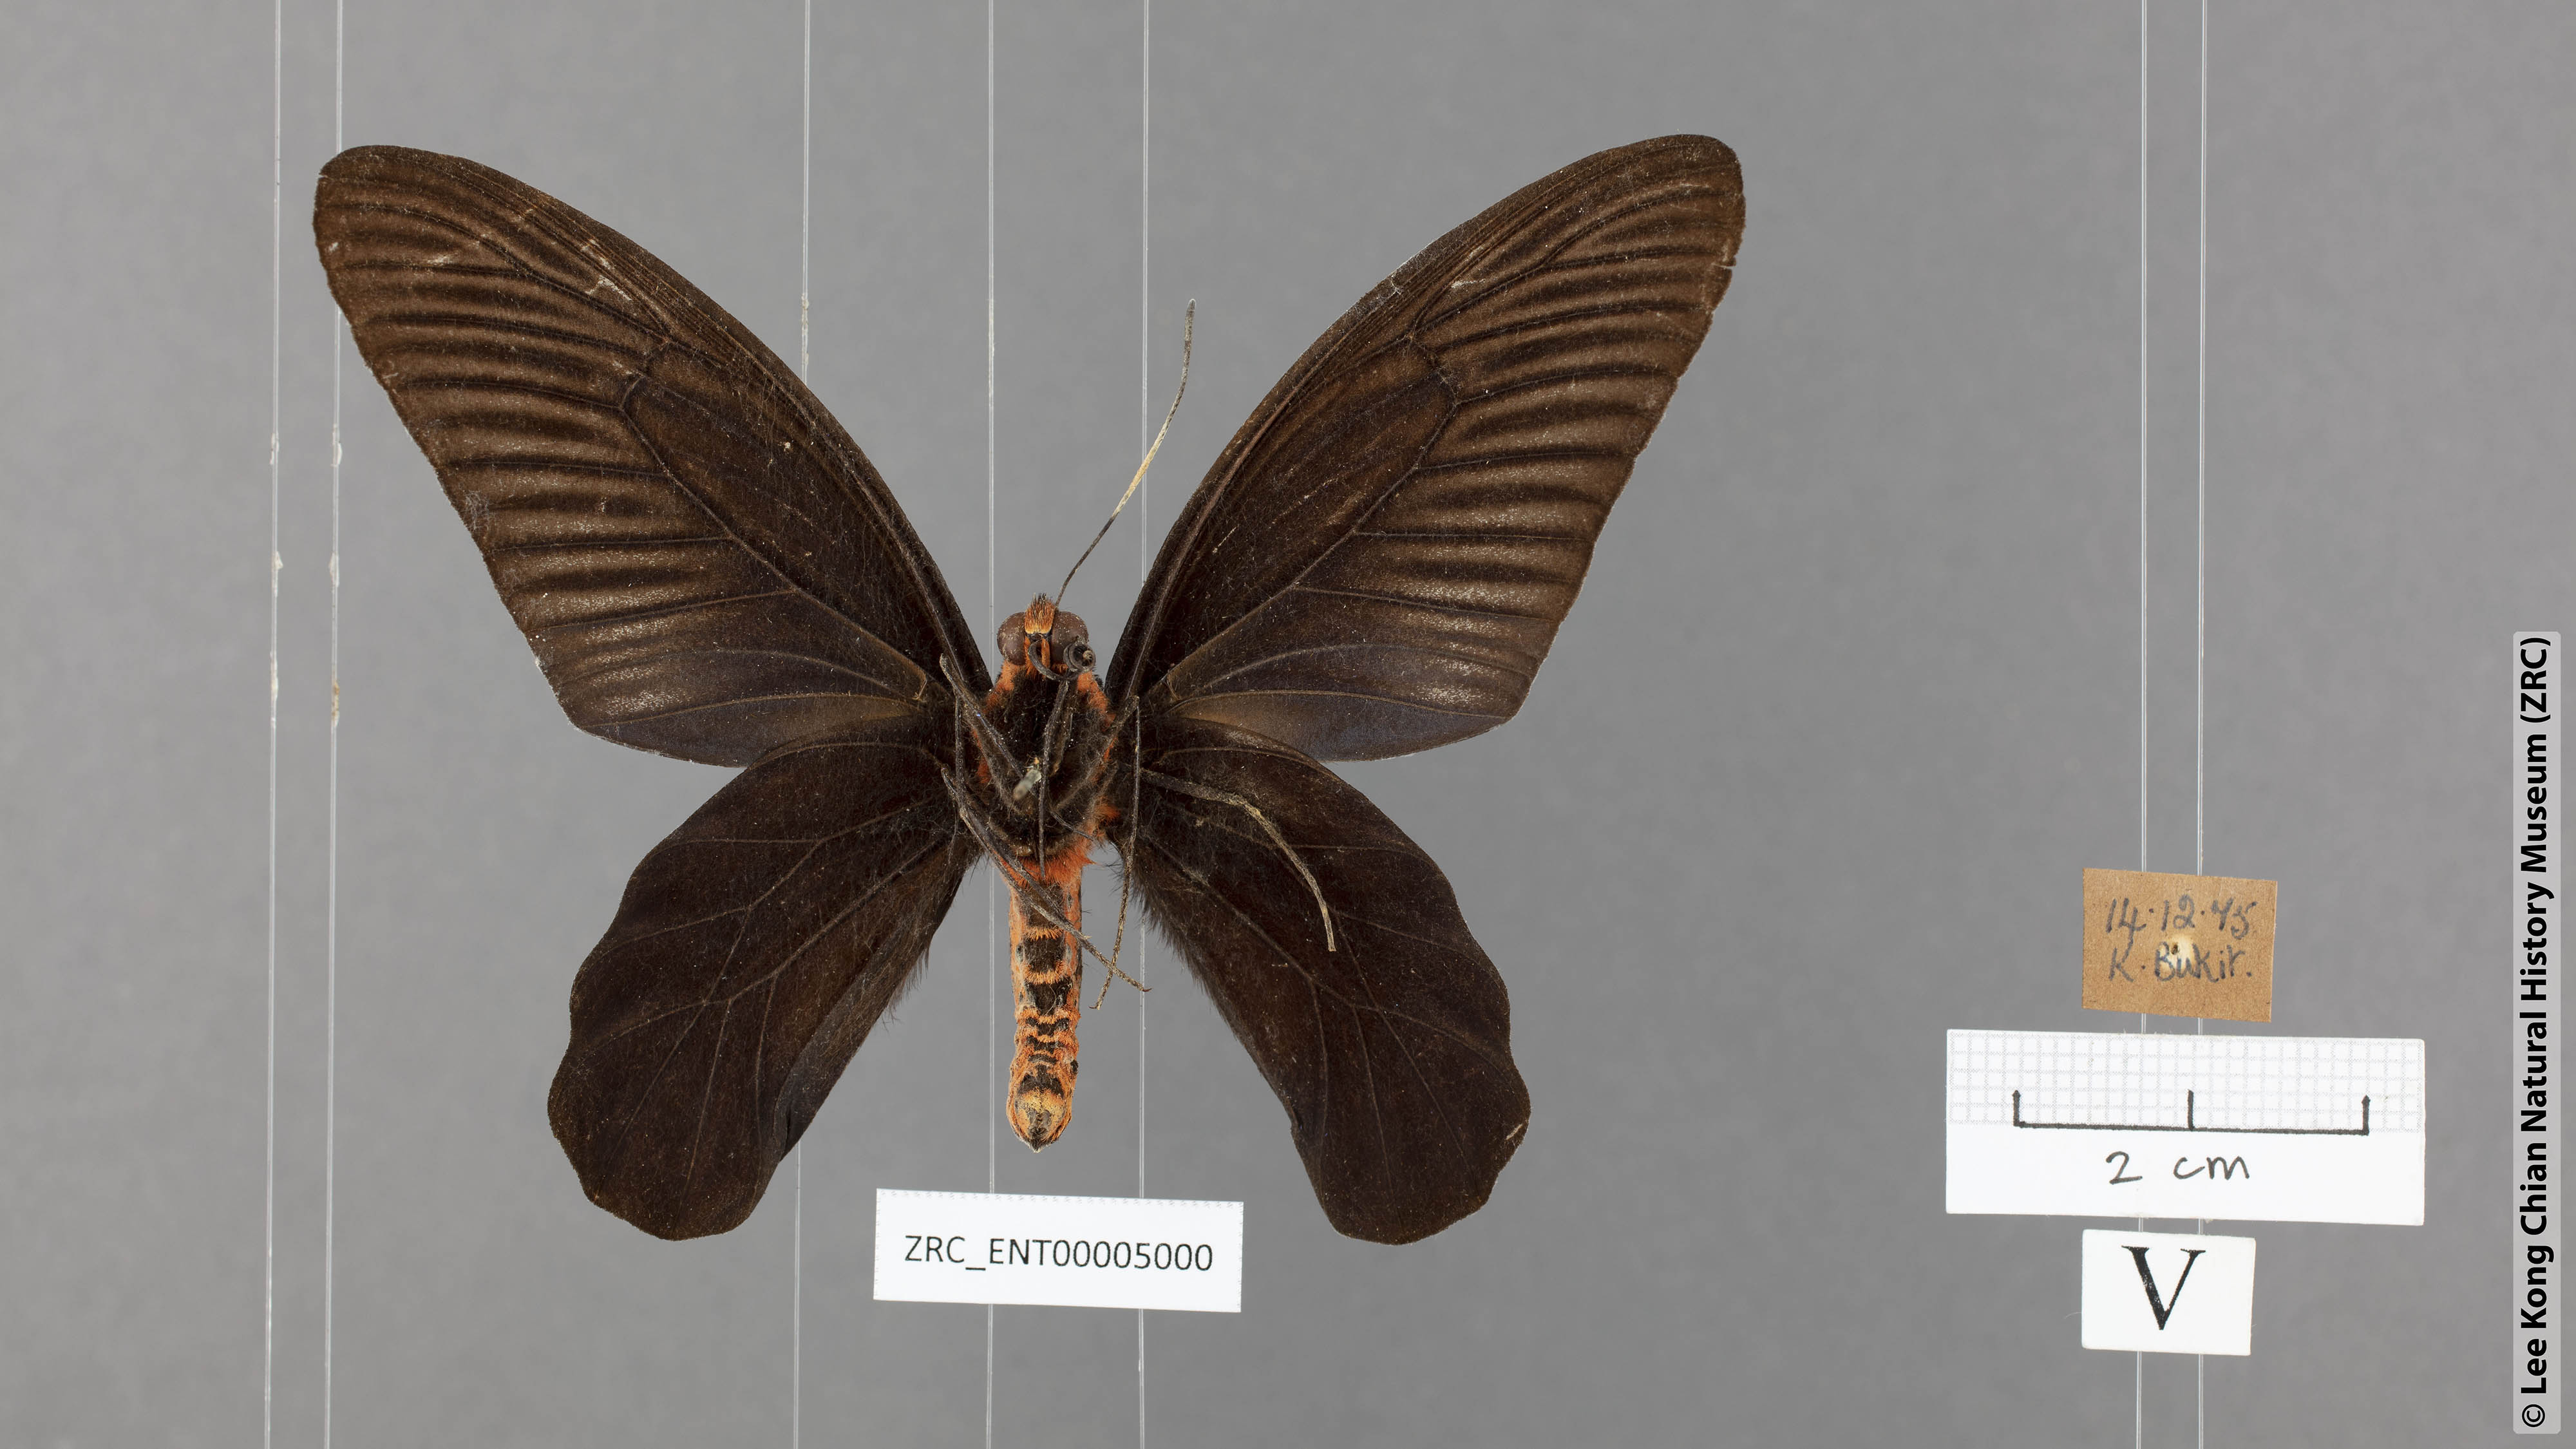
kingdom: Animalia
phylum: Arthropoda
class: Insecta
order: Lepidoptera
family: Papilionidae
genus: Atrophaneura
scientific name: Atrophaneura varuna
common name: Common batwing
